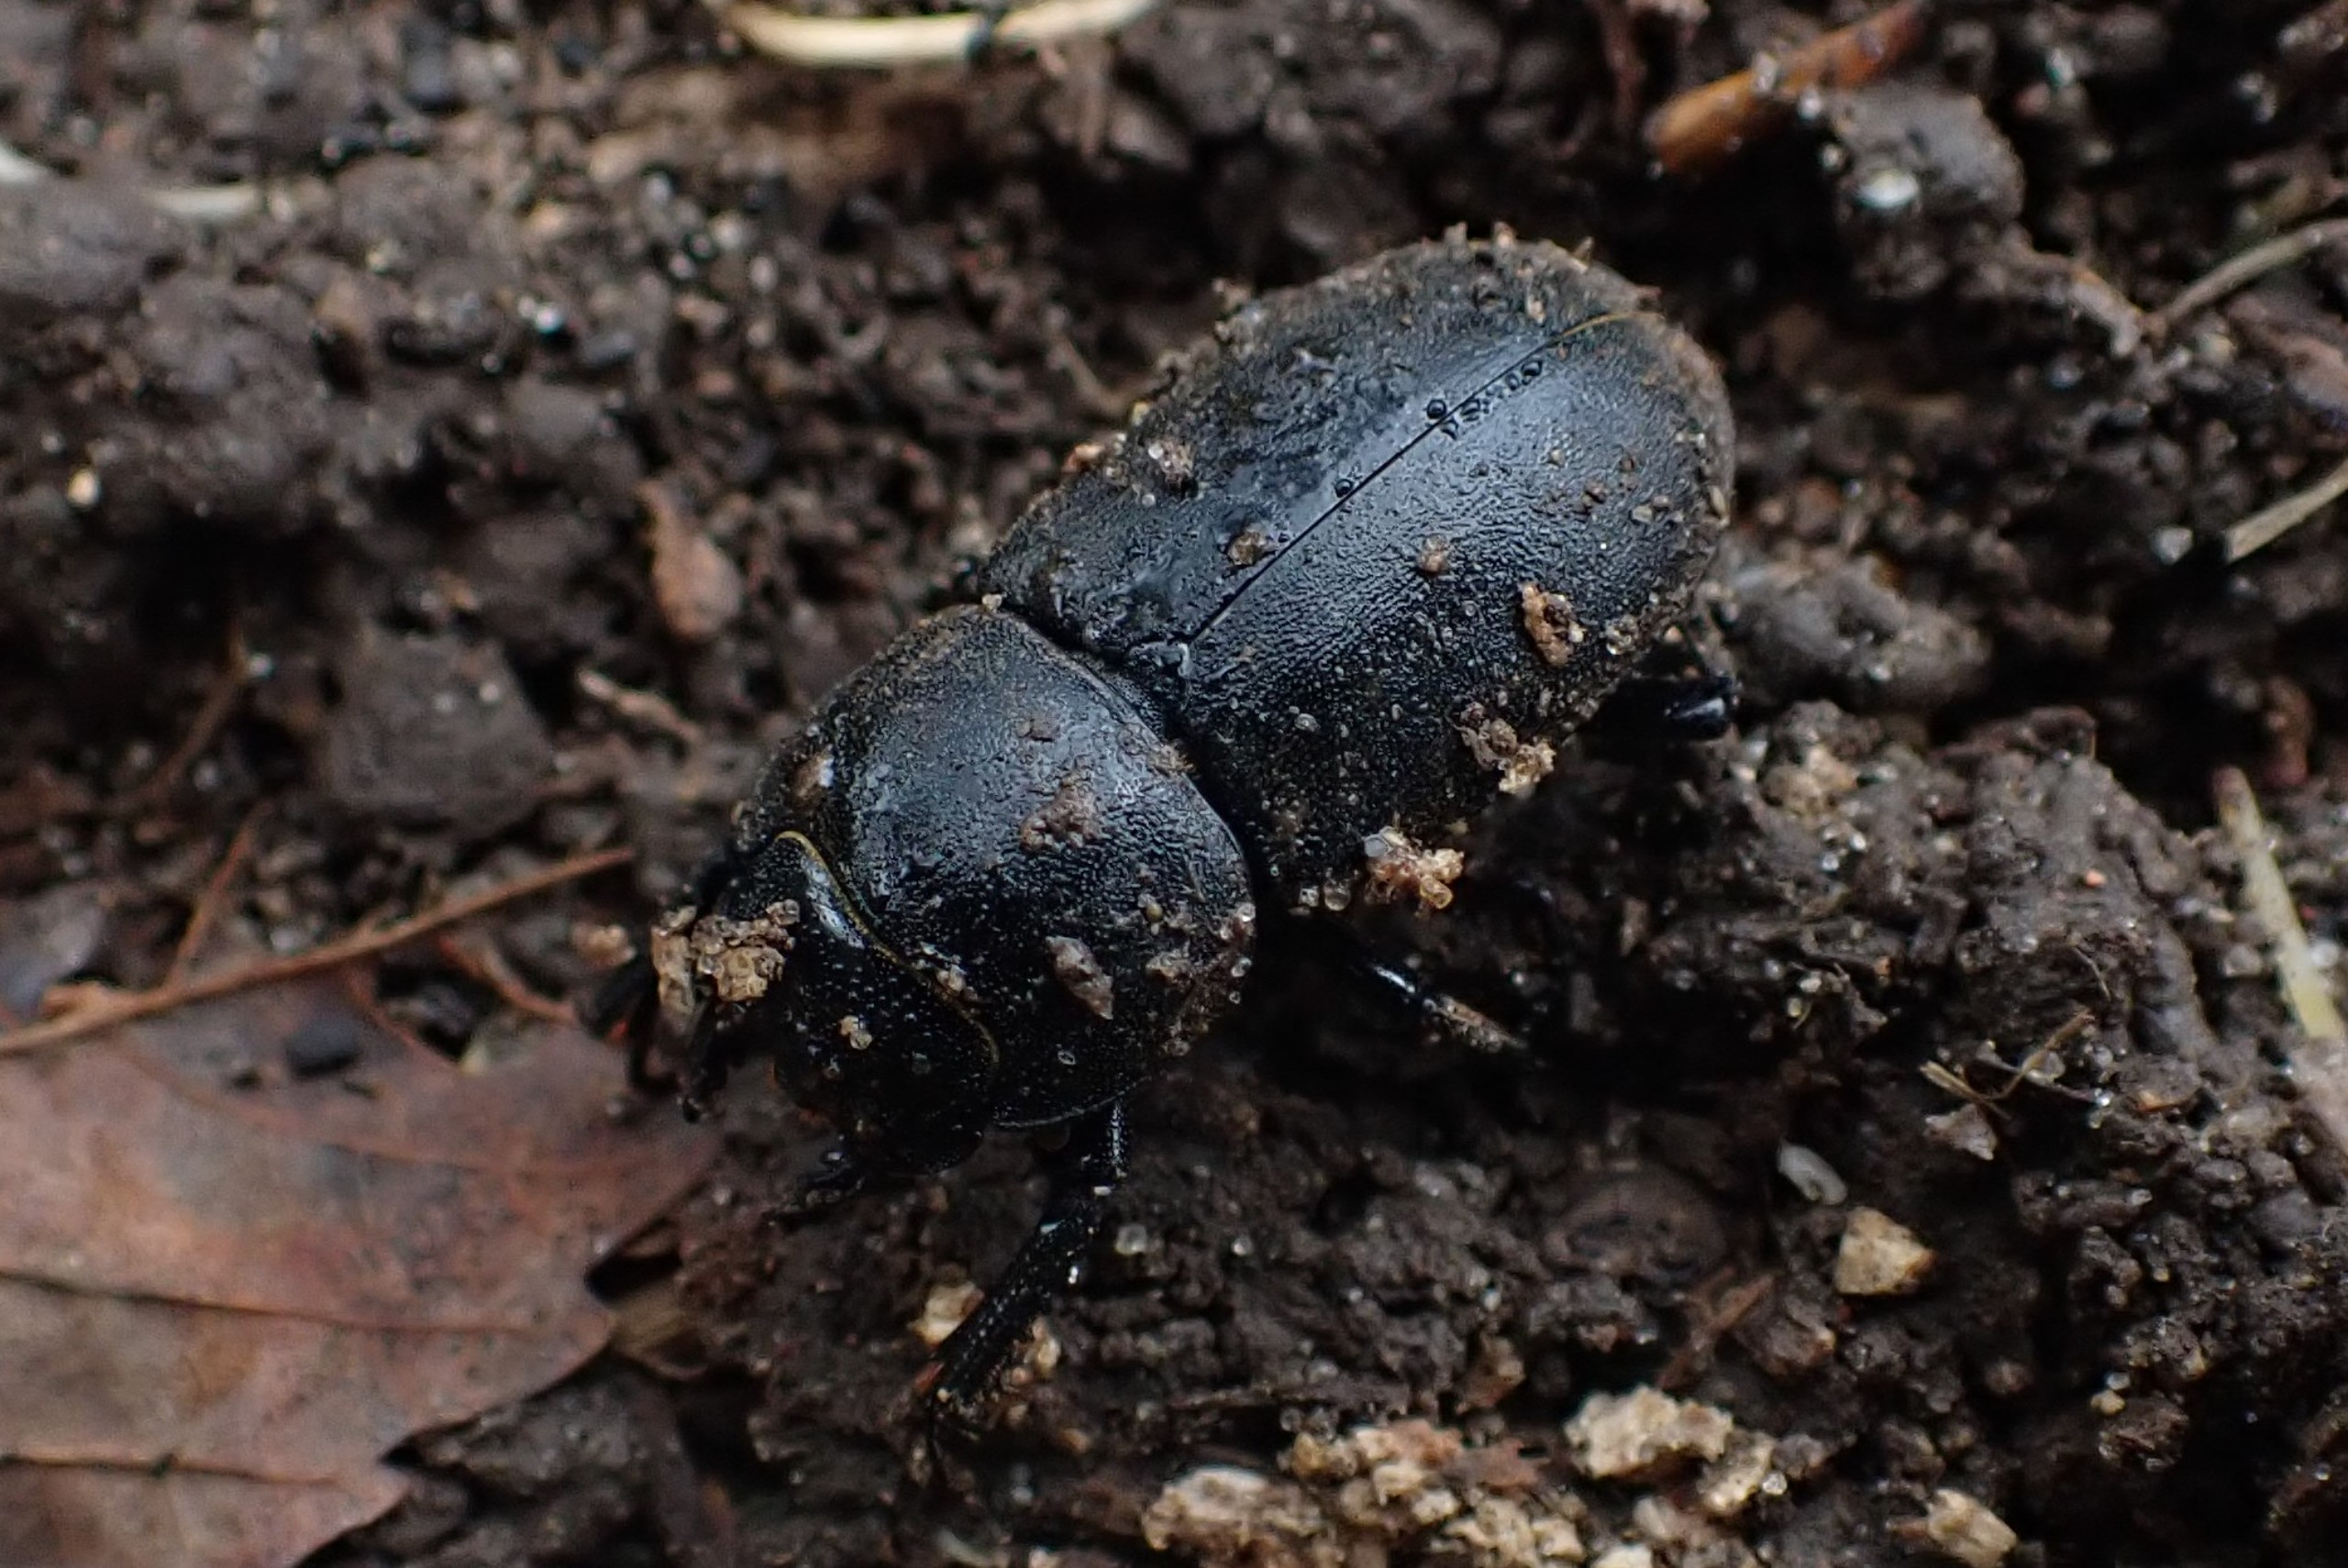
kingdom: Animalia
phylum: Arthropoda
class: Insecta
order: Coleoptera
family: Lucanidae
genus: Dorcus
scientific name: Dorcus parallelipipedus
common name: Bøghjort
